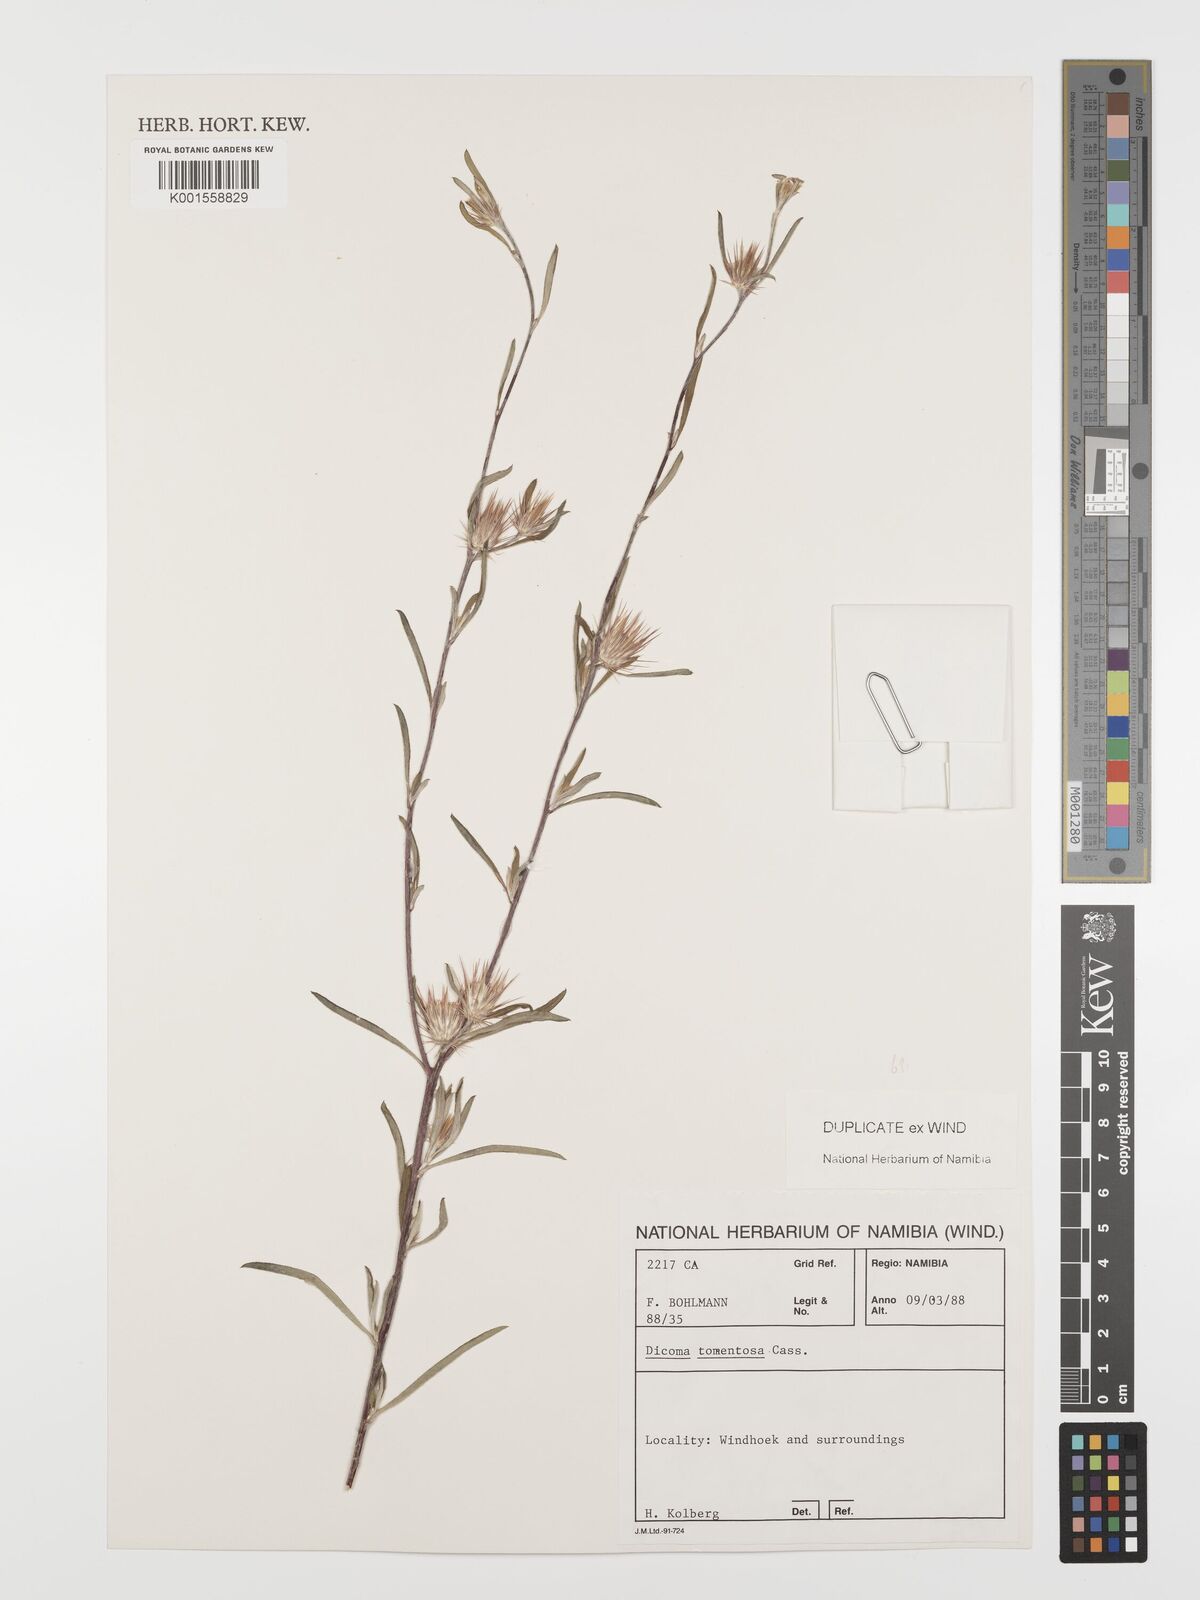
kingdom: Plantae
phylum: Tracheophyta
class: Magnoliopsida
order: Asterales
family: Asteraceae
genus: Dicoma
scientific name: Dicoma tomentosa
